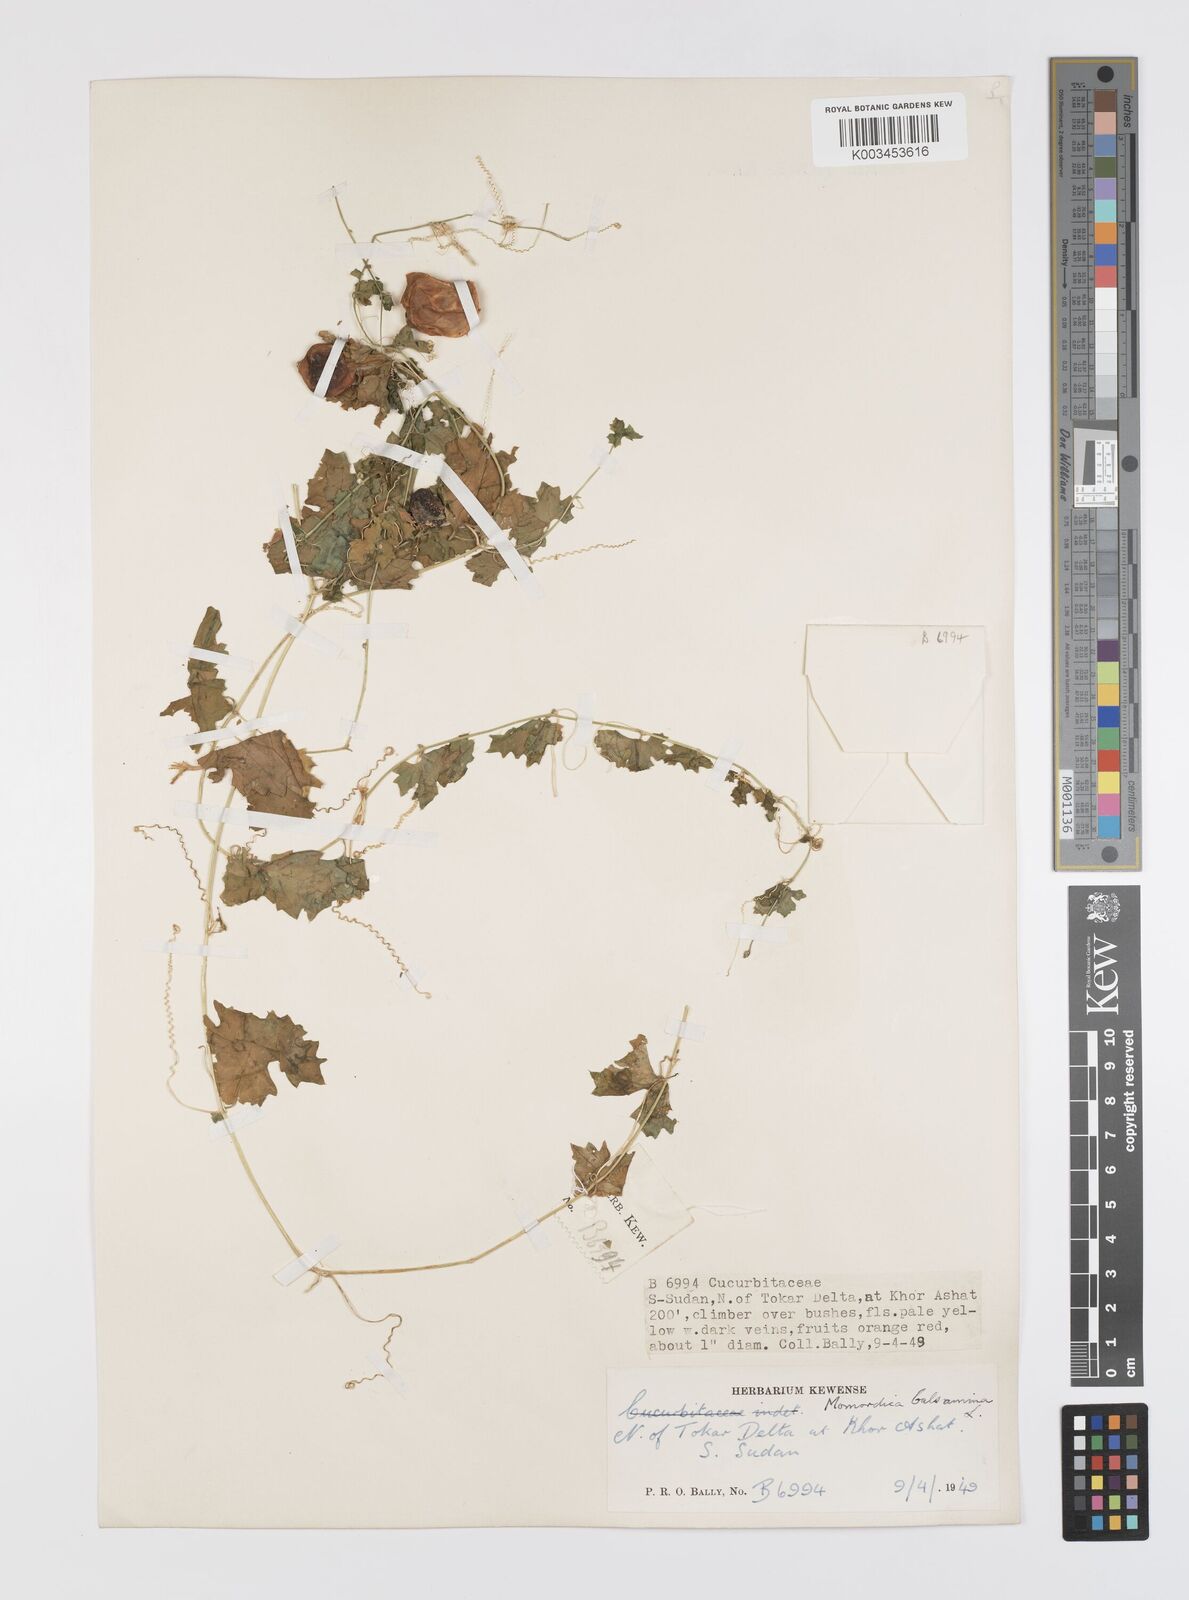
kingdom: Plantae
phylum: Tracheophyta
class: Magnoliopsida
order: Cucurbitales
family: Cucurbitaceae
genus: Momordica
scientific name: Momordica balsamina
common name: Southern balsampear
